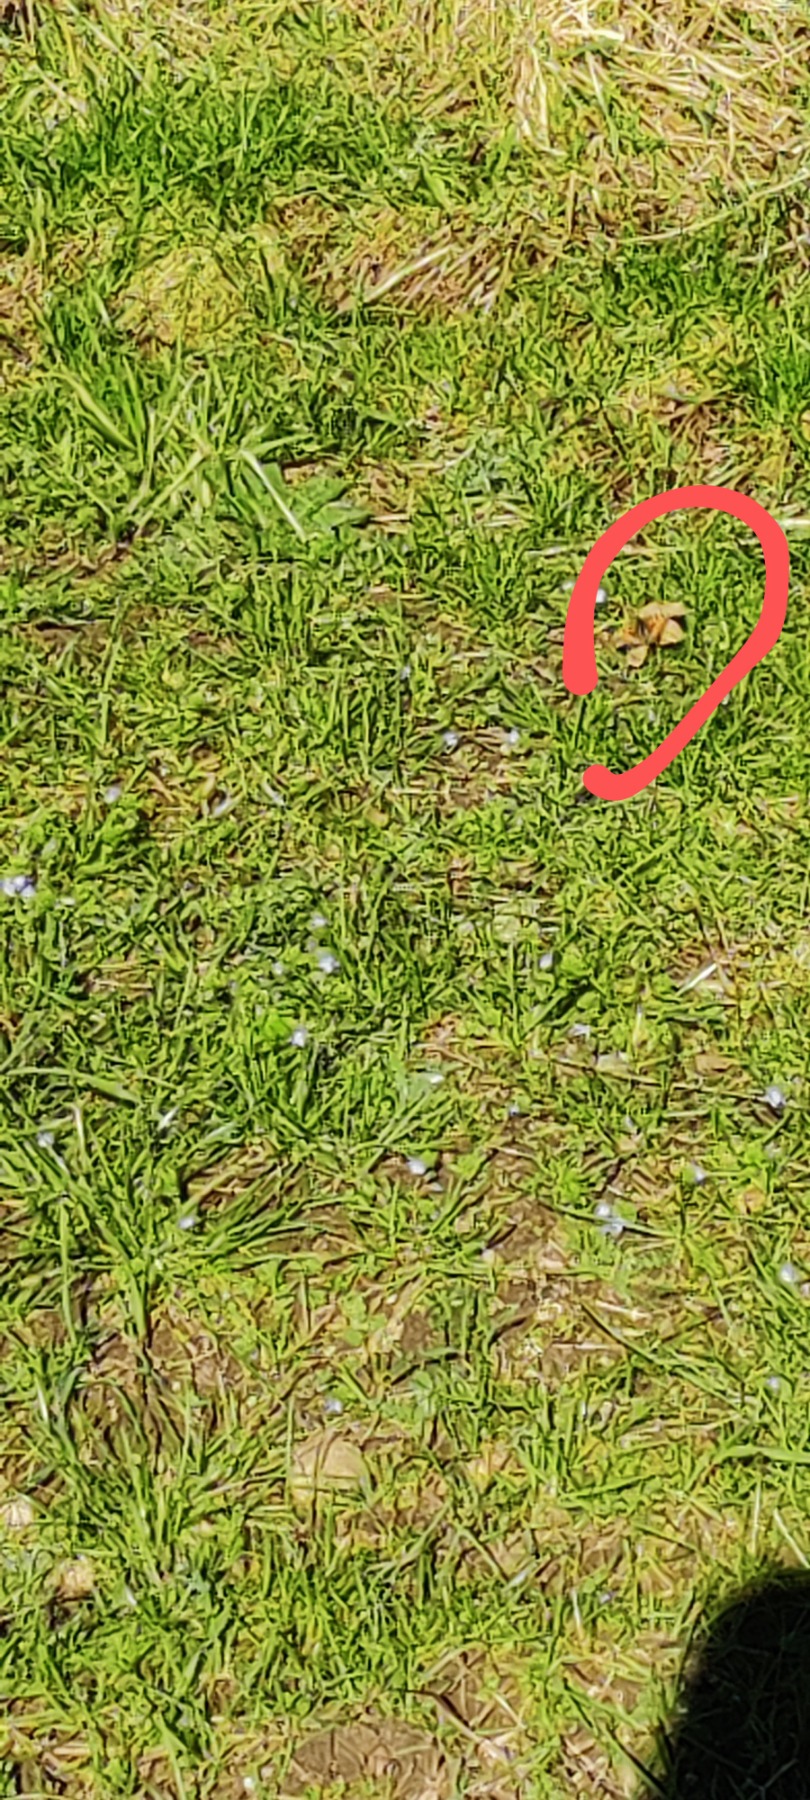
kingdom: Animalia
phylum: Arthropoda
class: Insecta
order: Lepidoptera
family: Nymphalidae
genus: Aglais
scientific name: Aglais urticae
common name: Nældens takvinge
